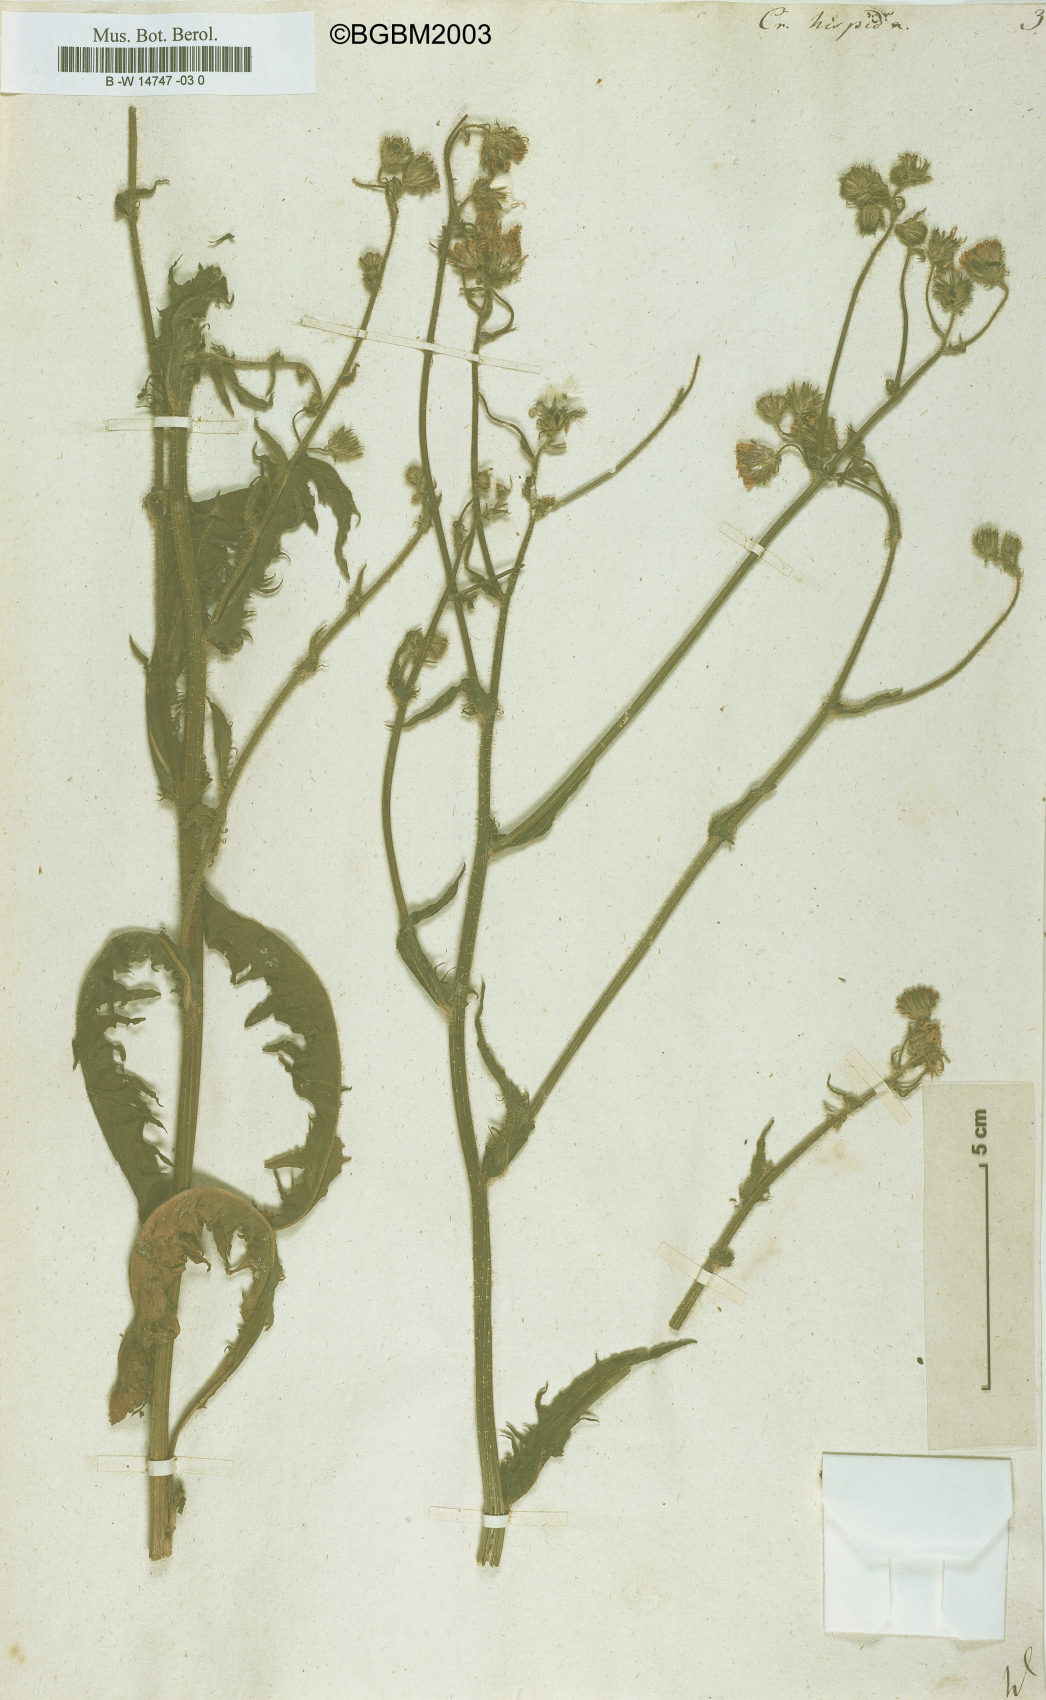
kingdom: Plantae
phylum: Tracheophyta
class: Magnoliopsida
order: Asterales
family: Asteraceae
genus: Crepis
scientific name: Crepis setosa
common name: Bristly hawk's-beard
